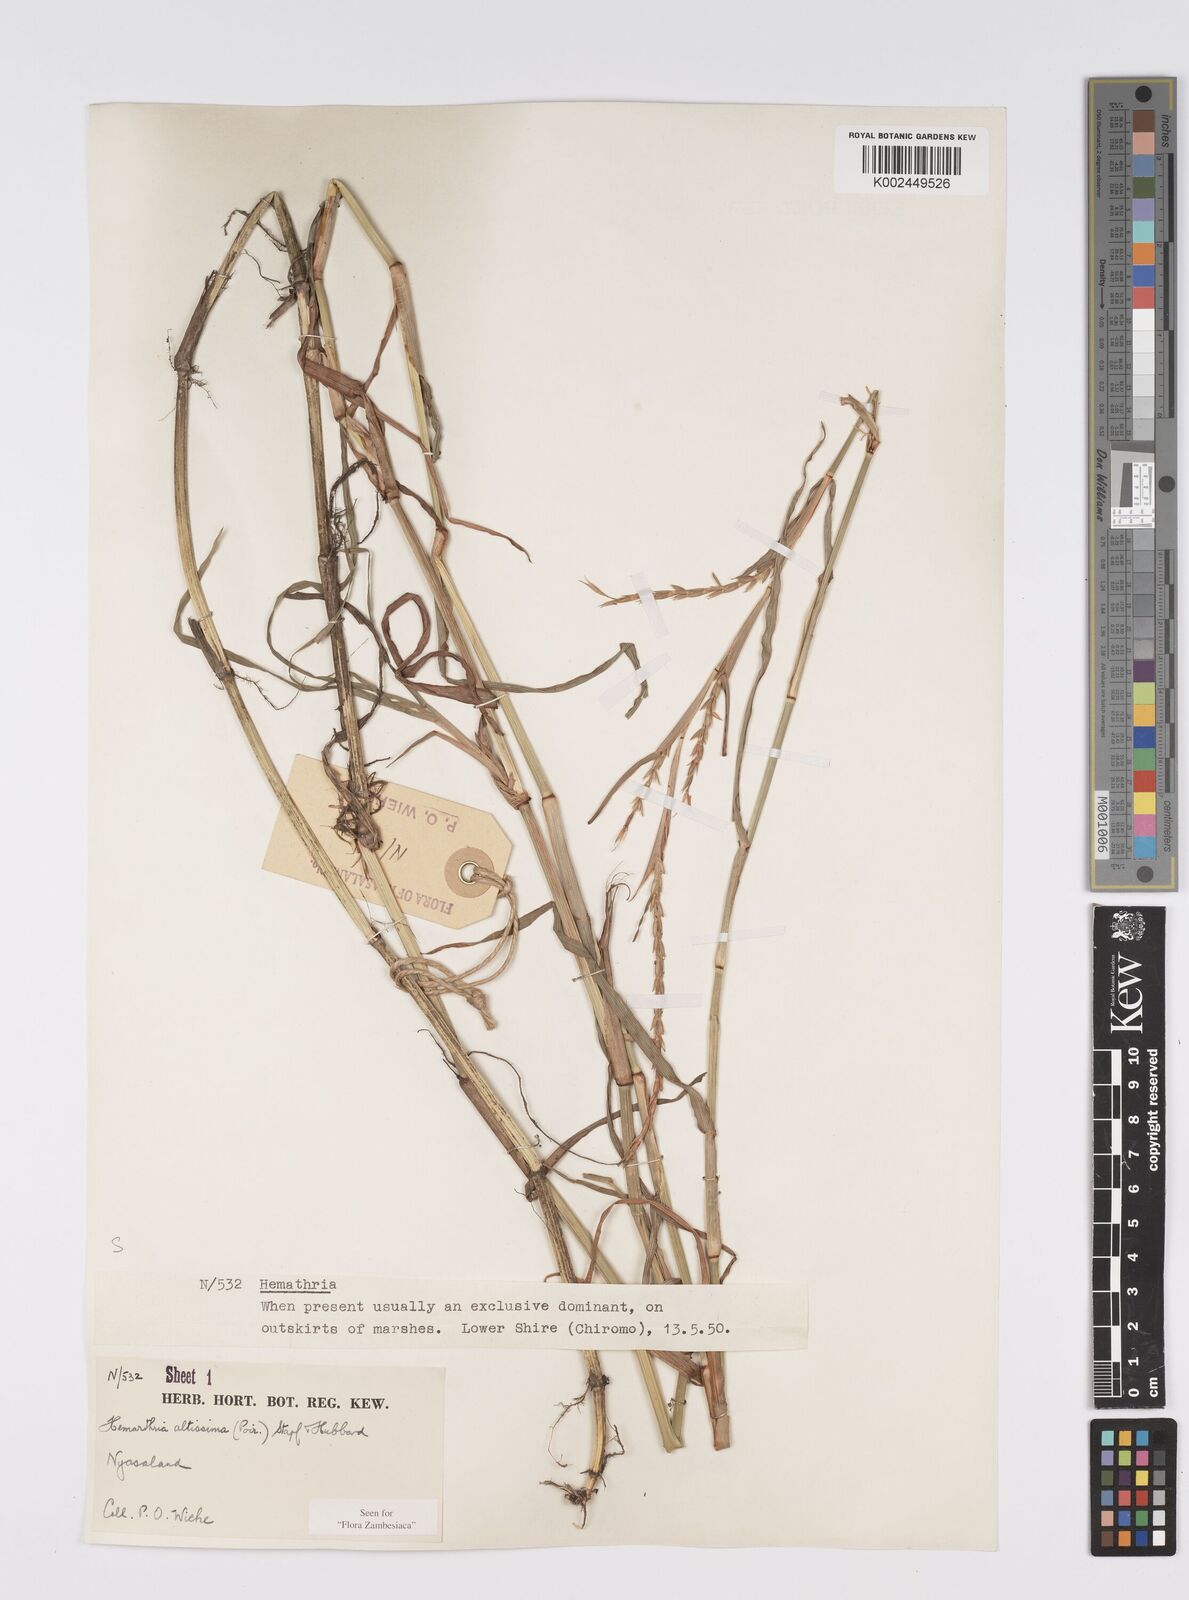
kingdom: Plantae
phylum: Tracheophyta
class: Liliopsida
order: Poales
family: Poaceae
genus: Hemarthria
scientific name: Hemarthria altissima
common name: African jointgrass
